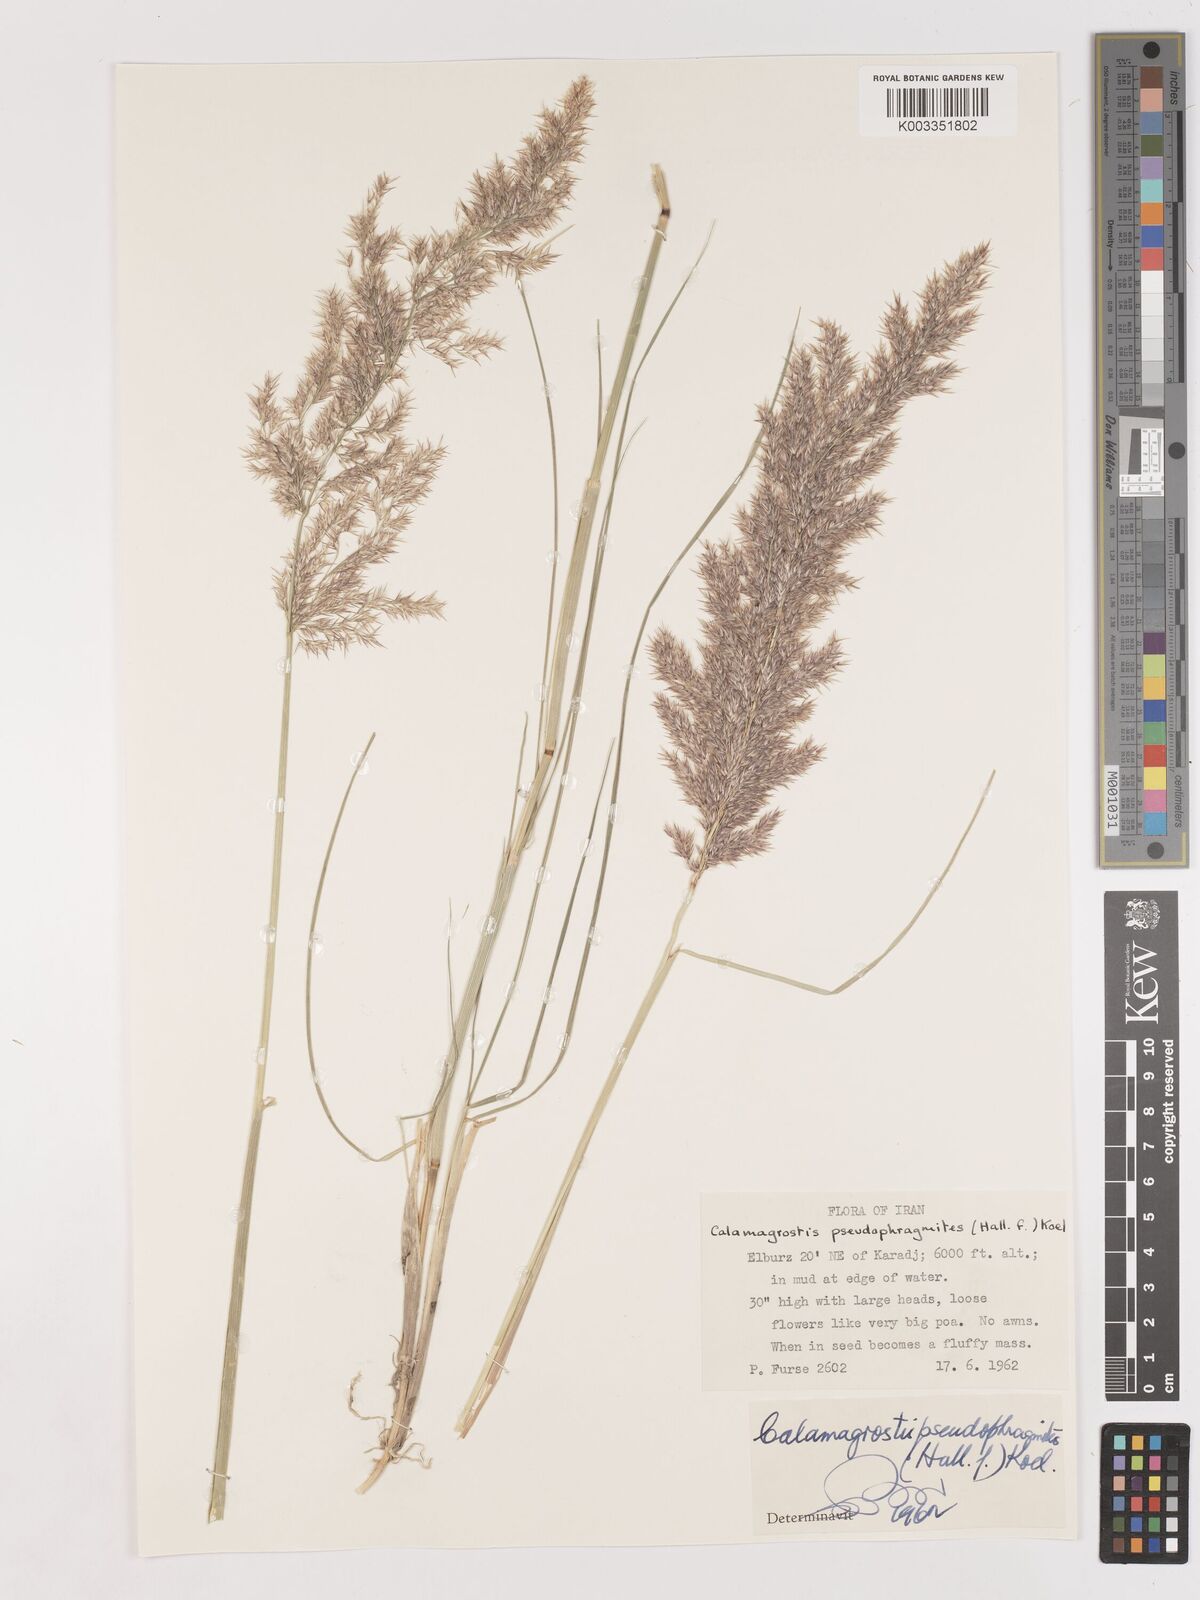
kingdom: Plantae
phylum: Tracheophyta
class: Liliopsida
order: Poales
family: Poaceae
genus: Calamagrostis
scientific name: Calamagrostis pseudophragmites
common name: Coastal small-reed
